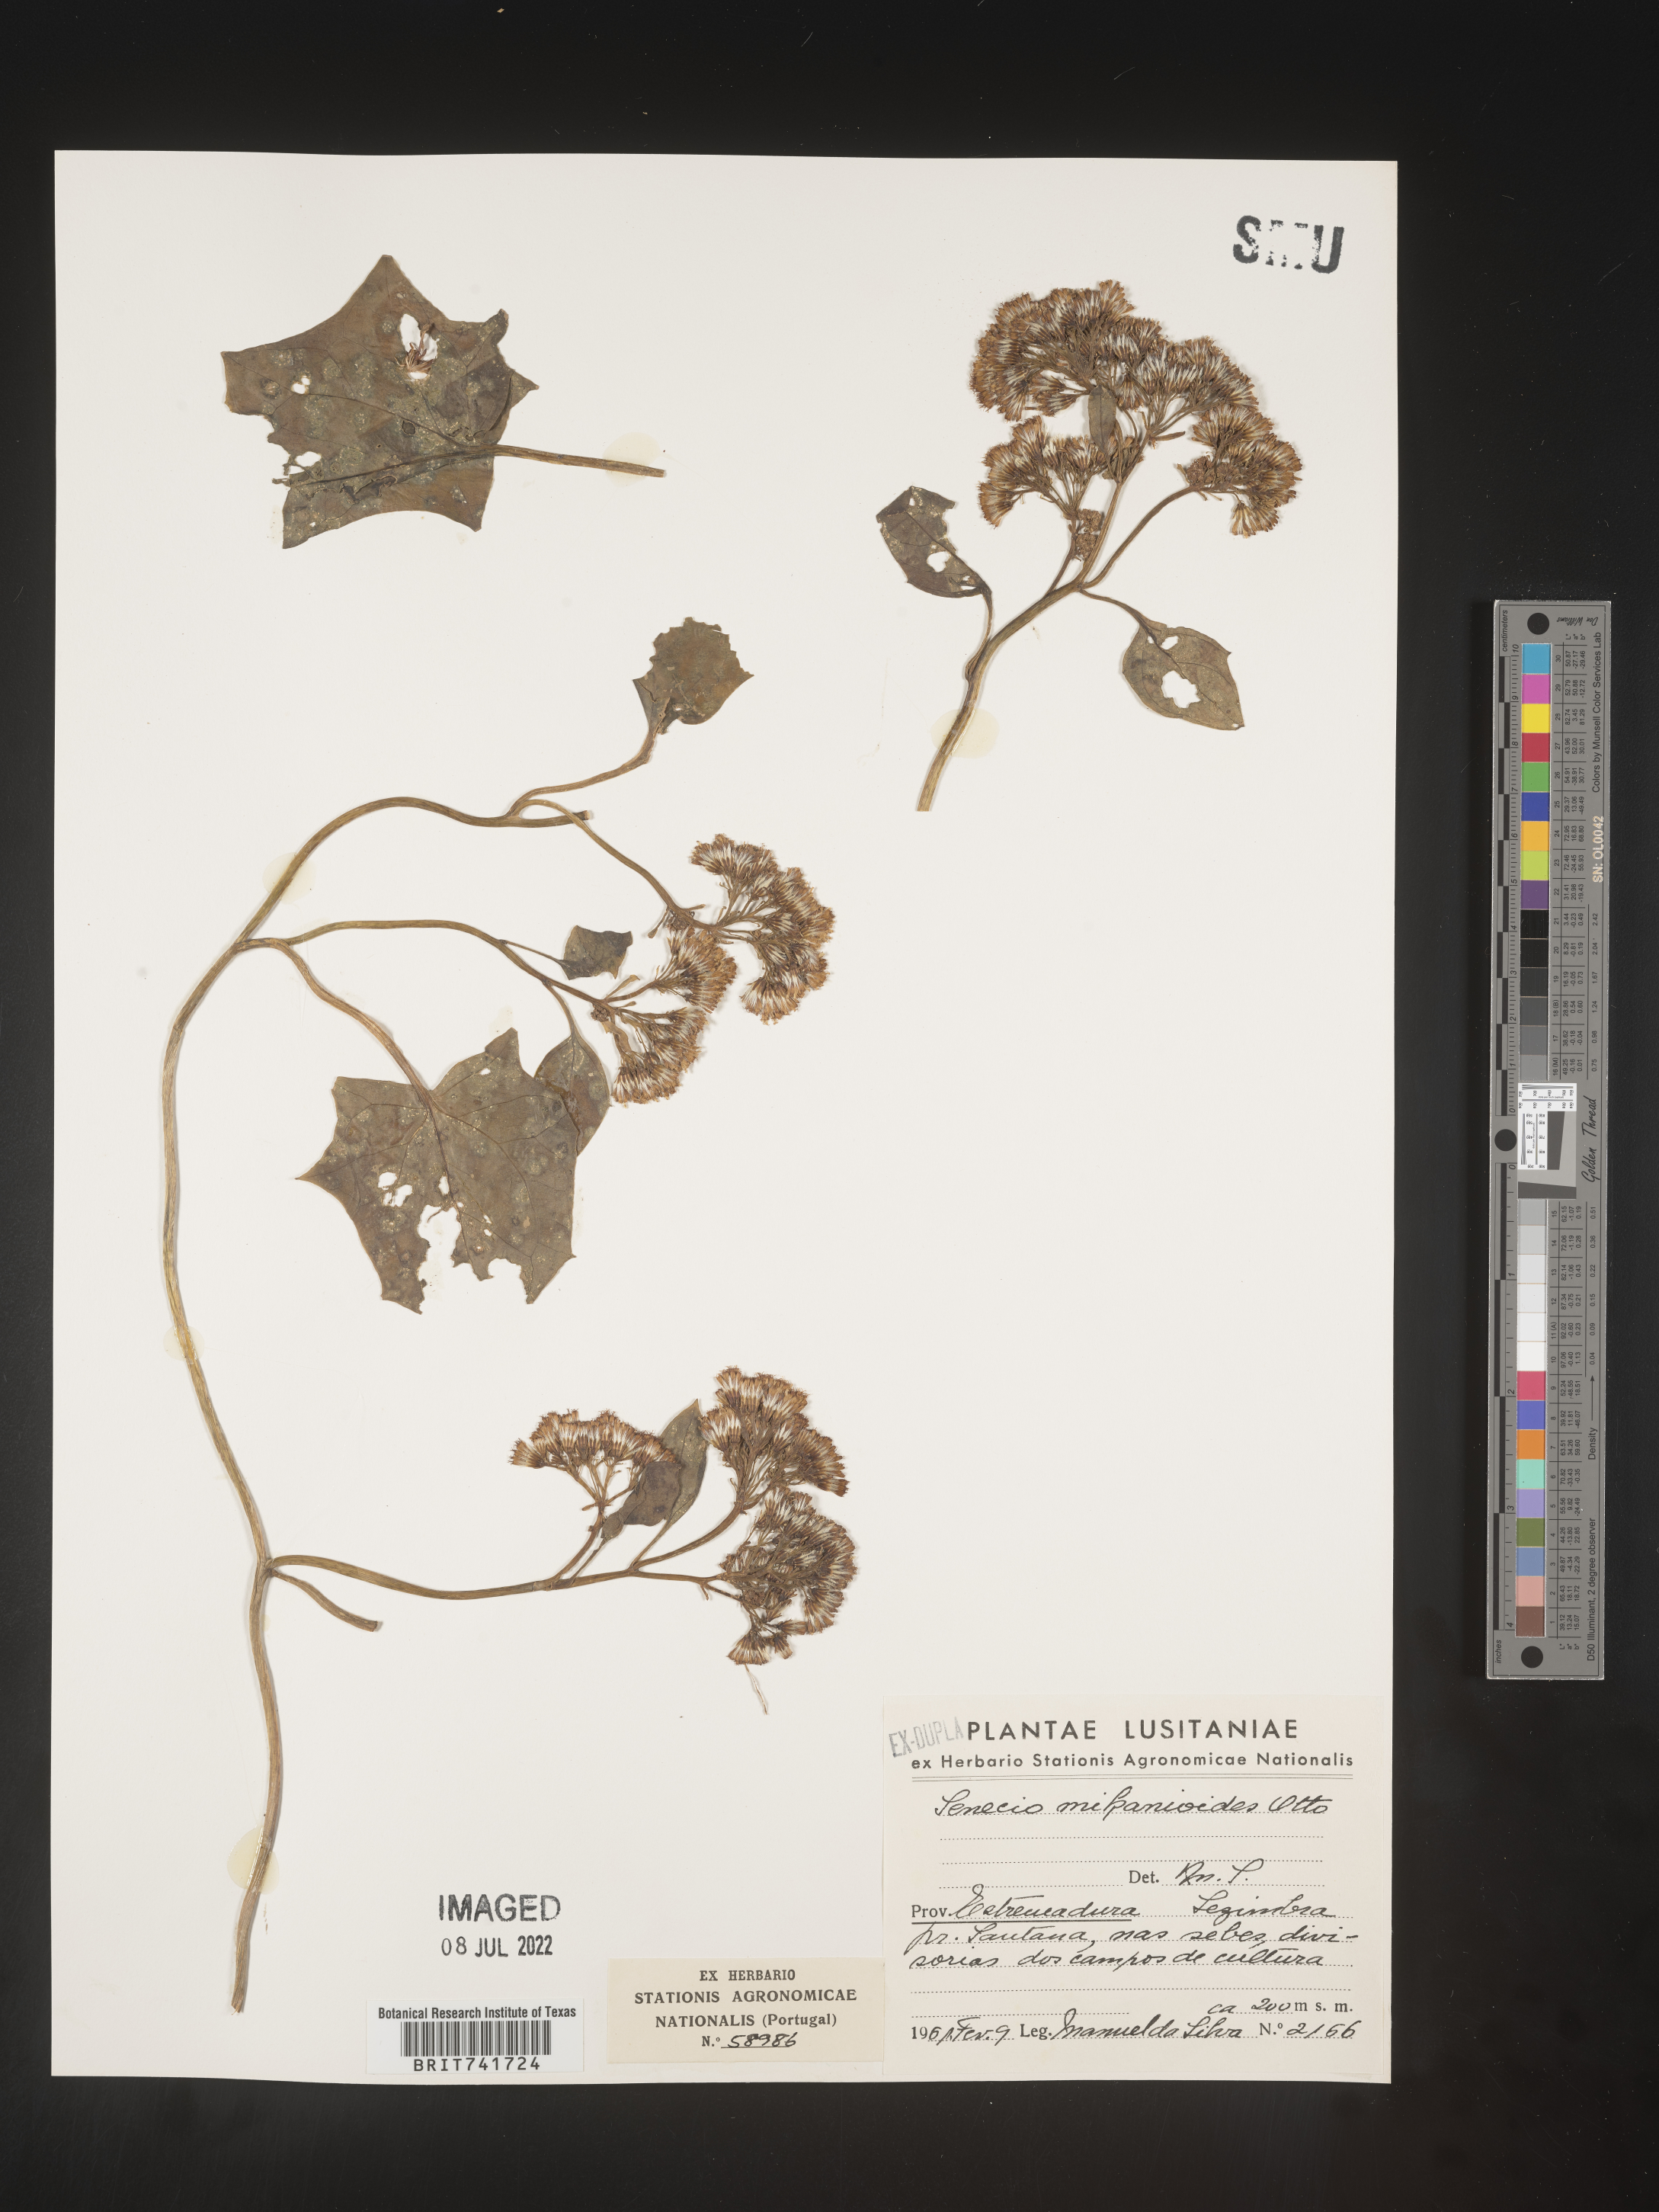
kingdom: Plantae
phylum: Tracheophyta
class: Magnoliopsida
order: Asterales
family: Asteraceae
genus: Senecio
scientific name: Senecio
